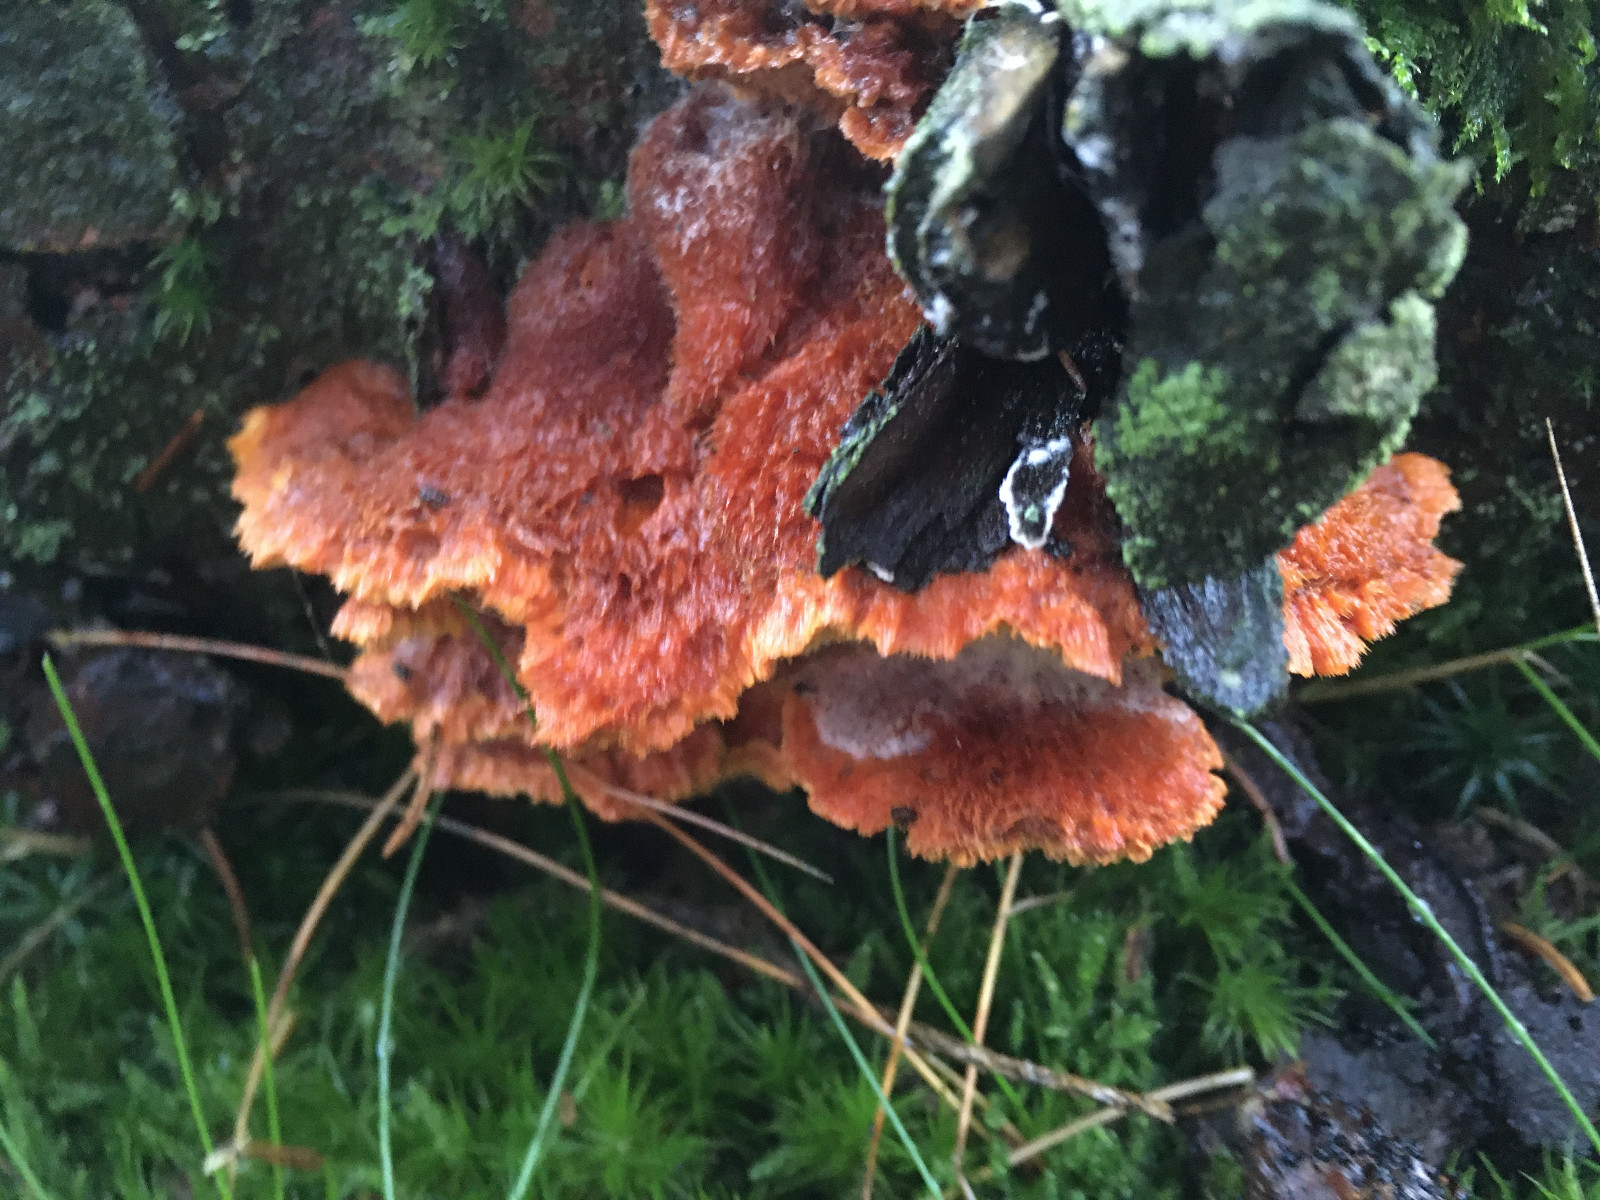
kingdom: Fungi
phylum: Basidiomycota
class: Agaricomycetes
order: Polyporales
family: Pycnoporellaceae
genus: Pycnoporellus
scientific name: Pycnoporellus fulgens
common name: flammeporesvamp
